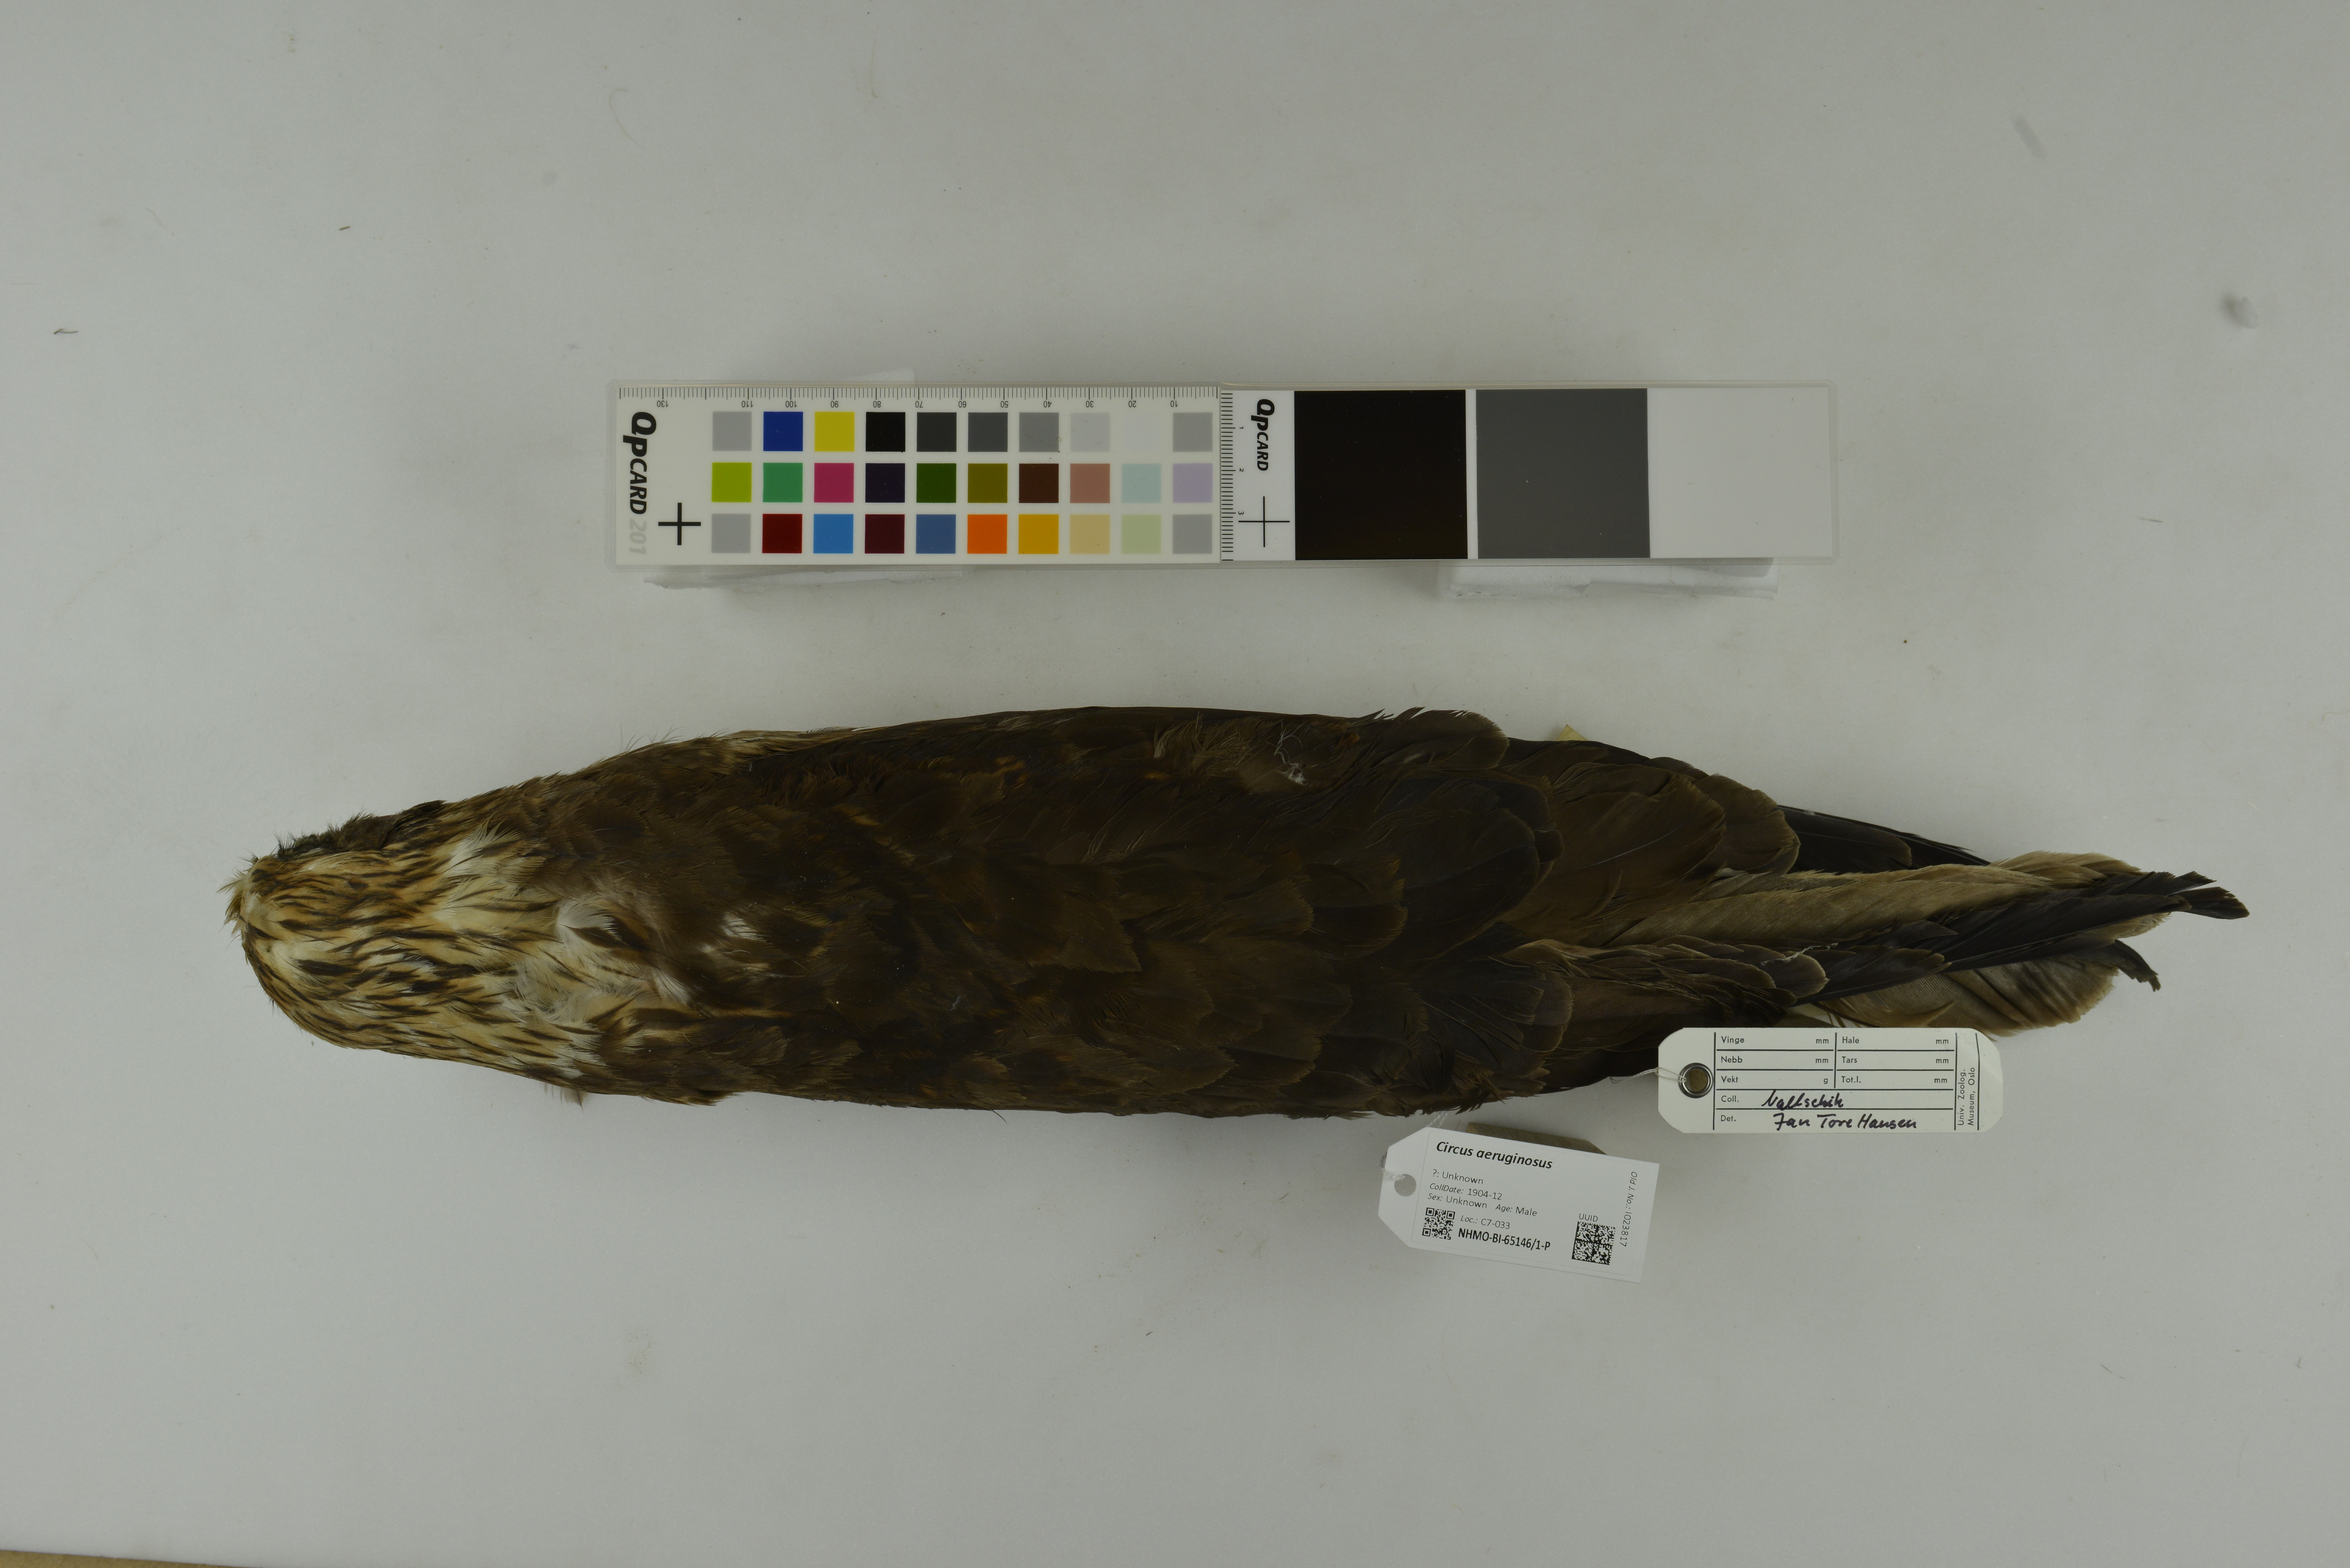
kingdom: Animalia
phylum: Chordata
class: Aves
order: Accipitriformes
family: Accipitridae
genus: Circus
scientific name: Circus aeruginosus
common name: Western marsh harrier
